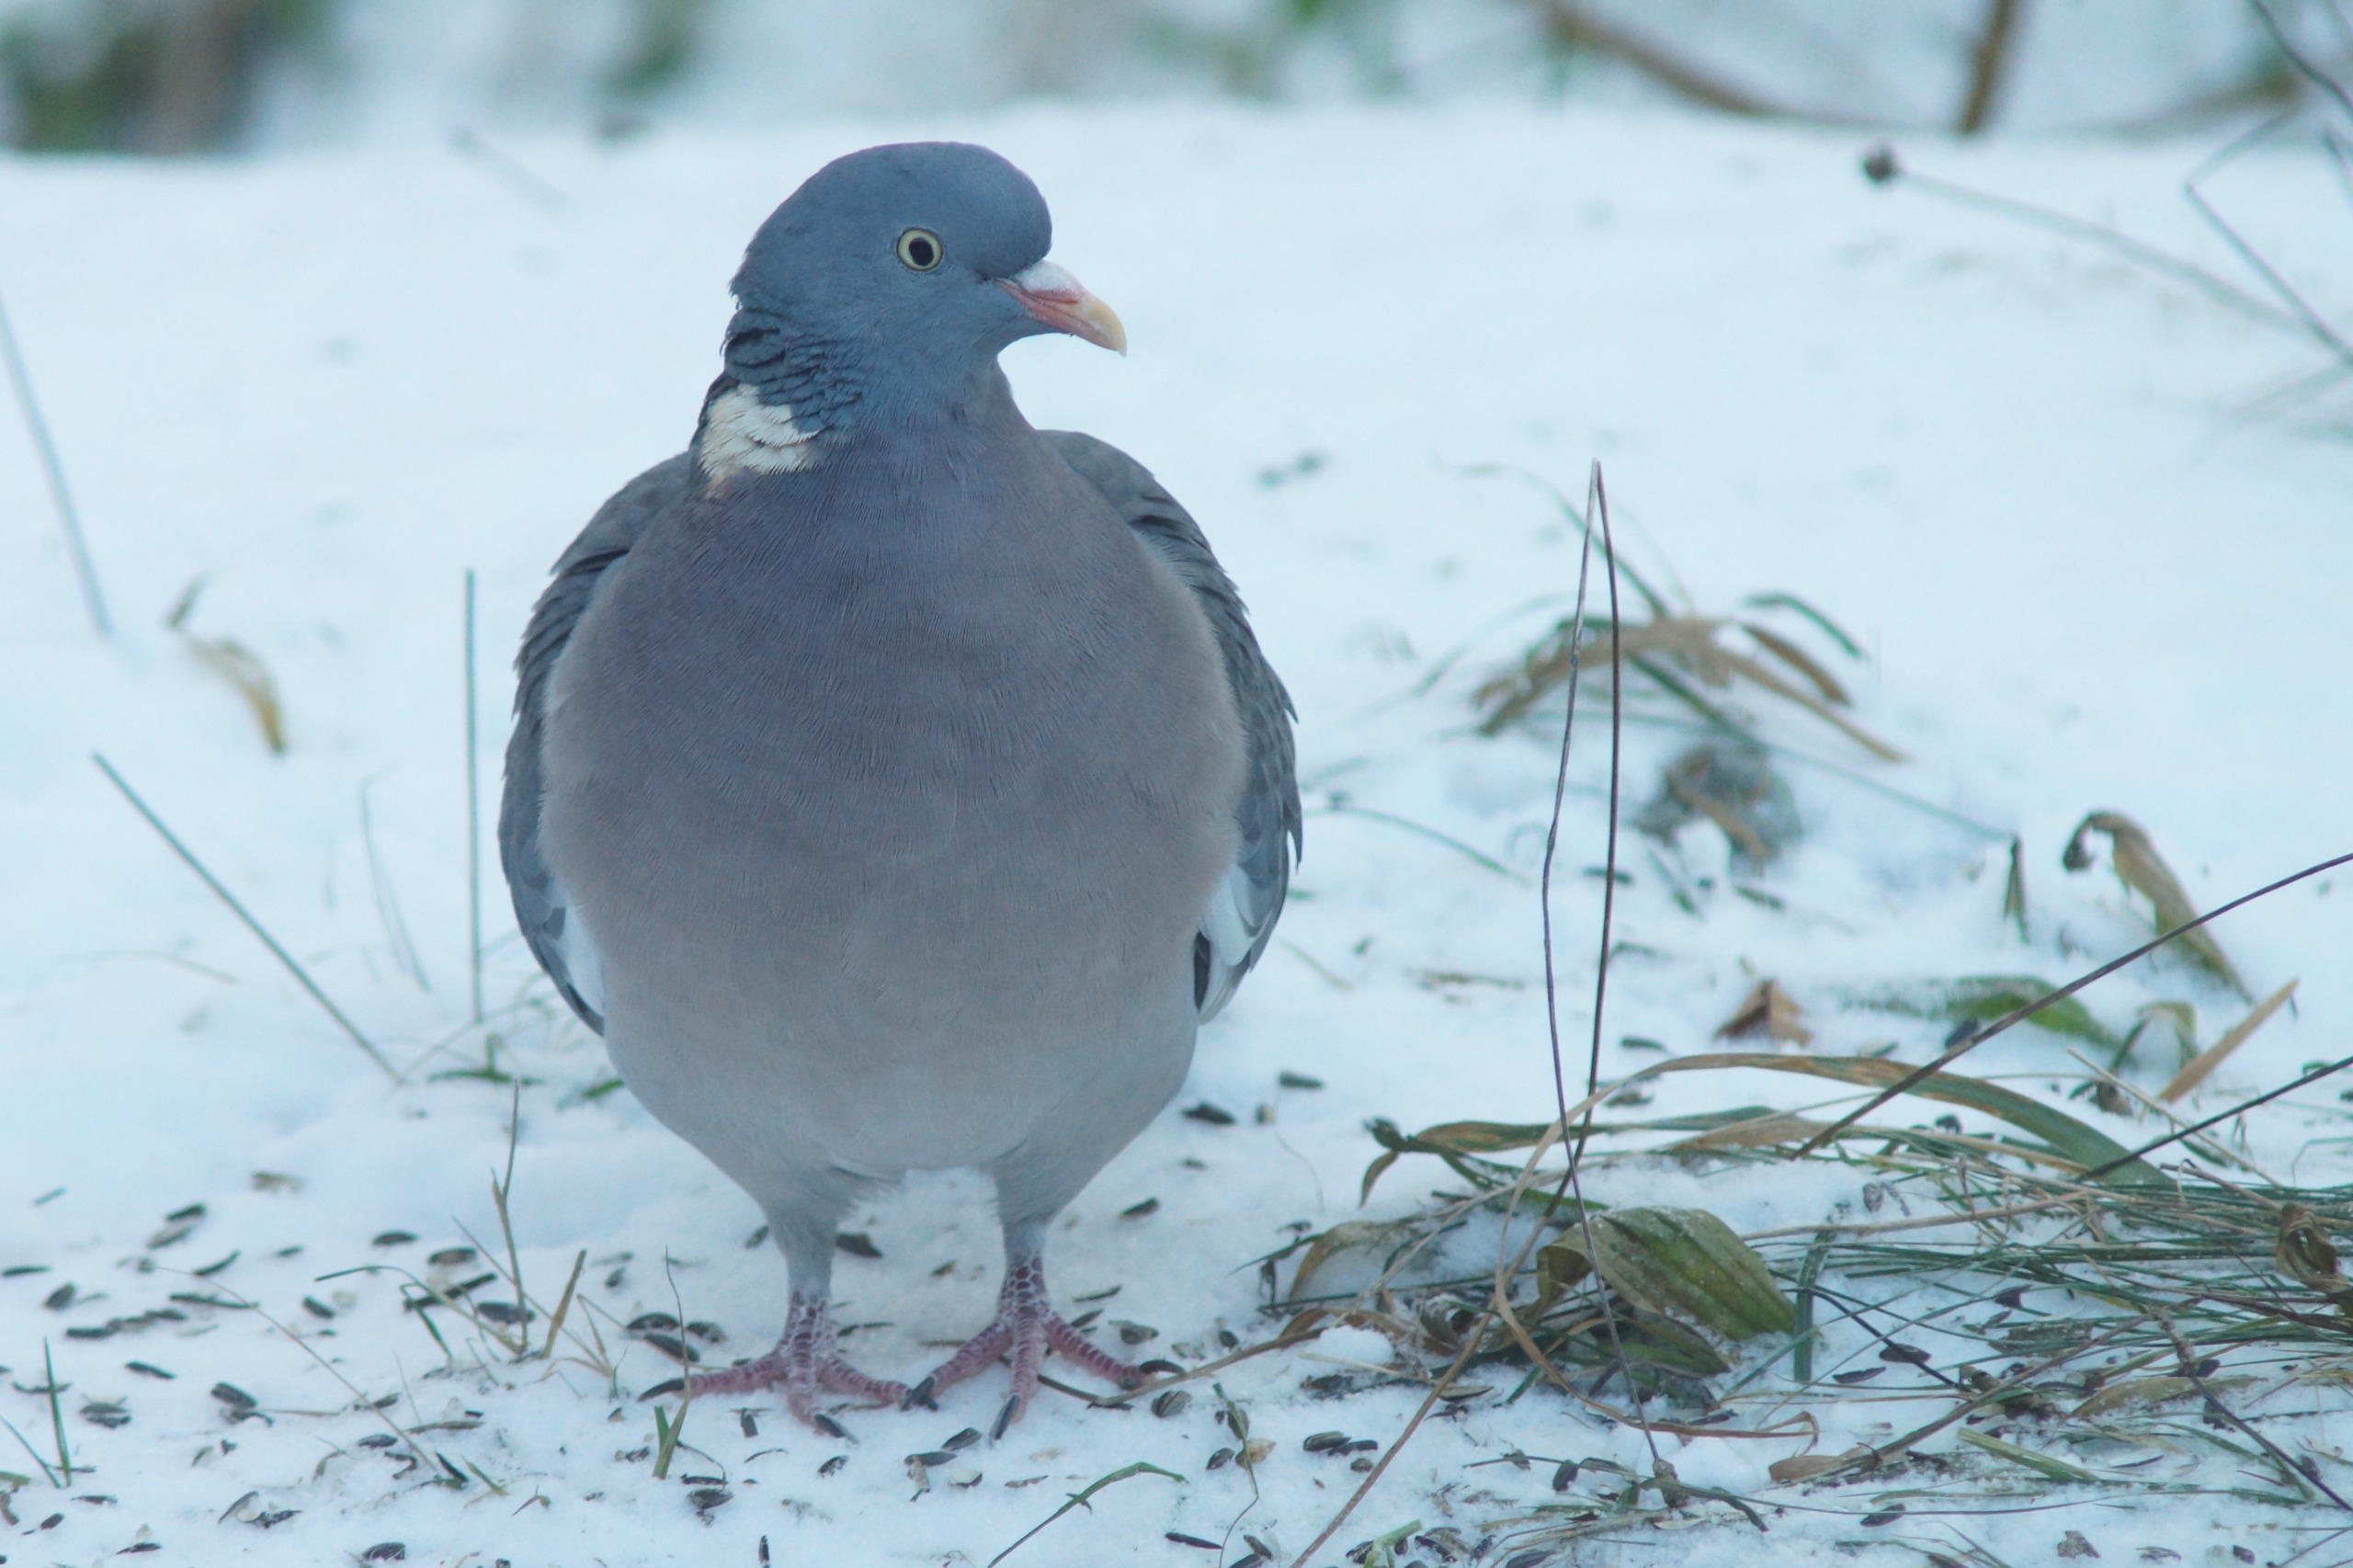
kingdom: Animalia
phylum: Chordata
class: Aves
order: Columbiformes
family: Columbidae
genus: Columba
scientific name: Columba palumbus
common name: Ringdue
